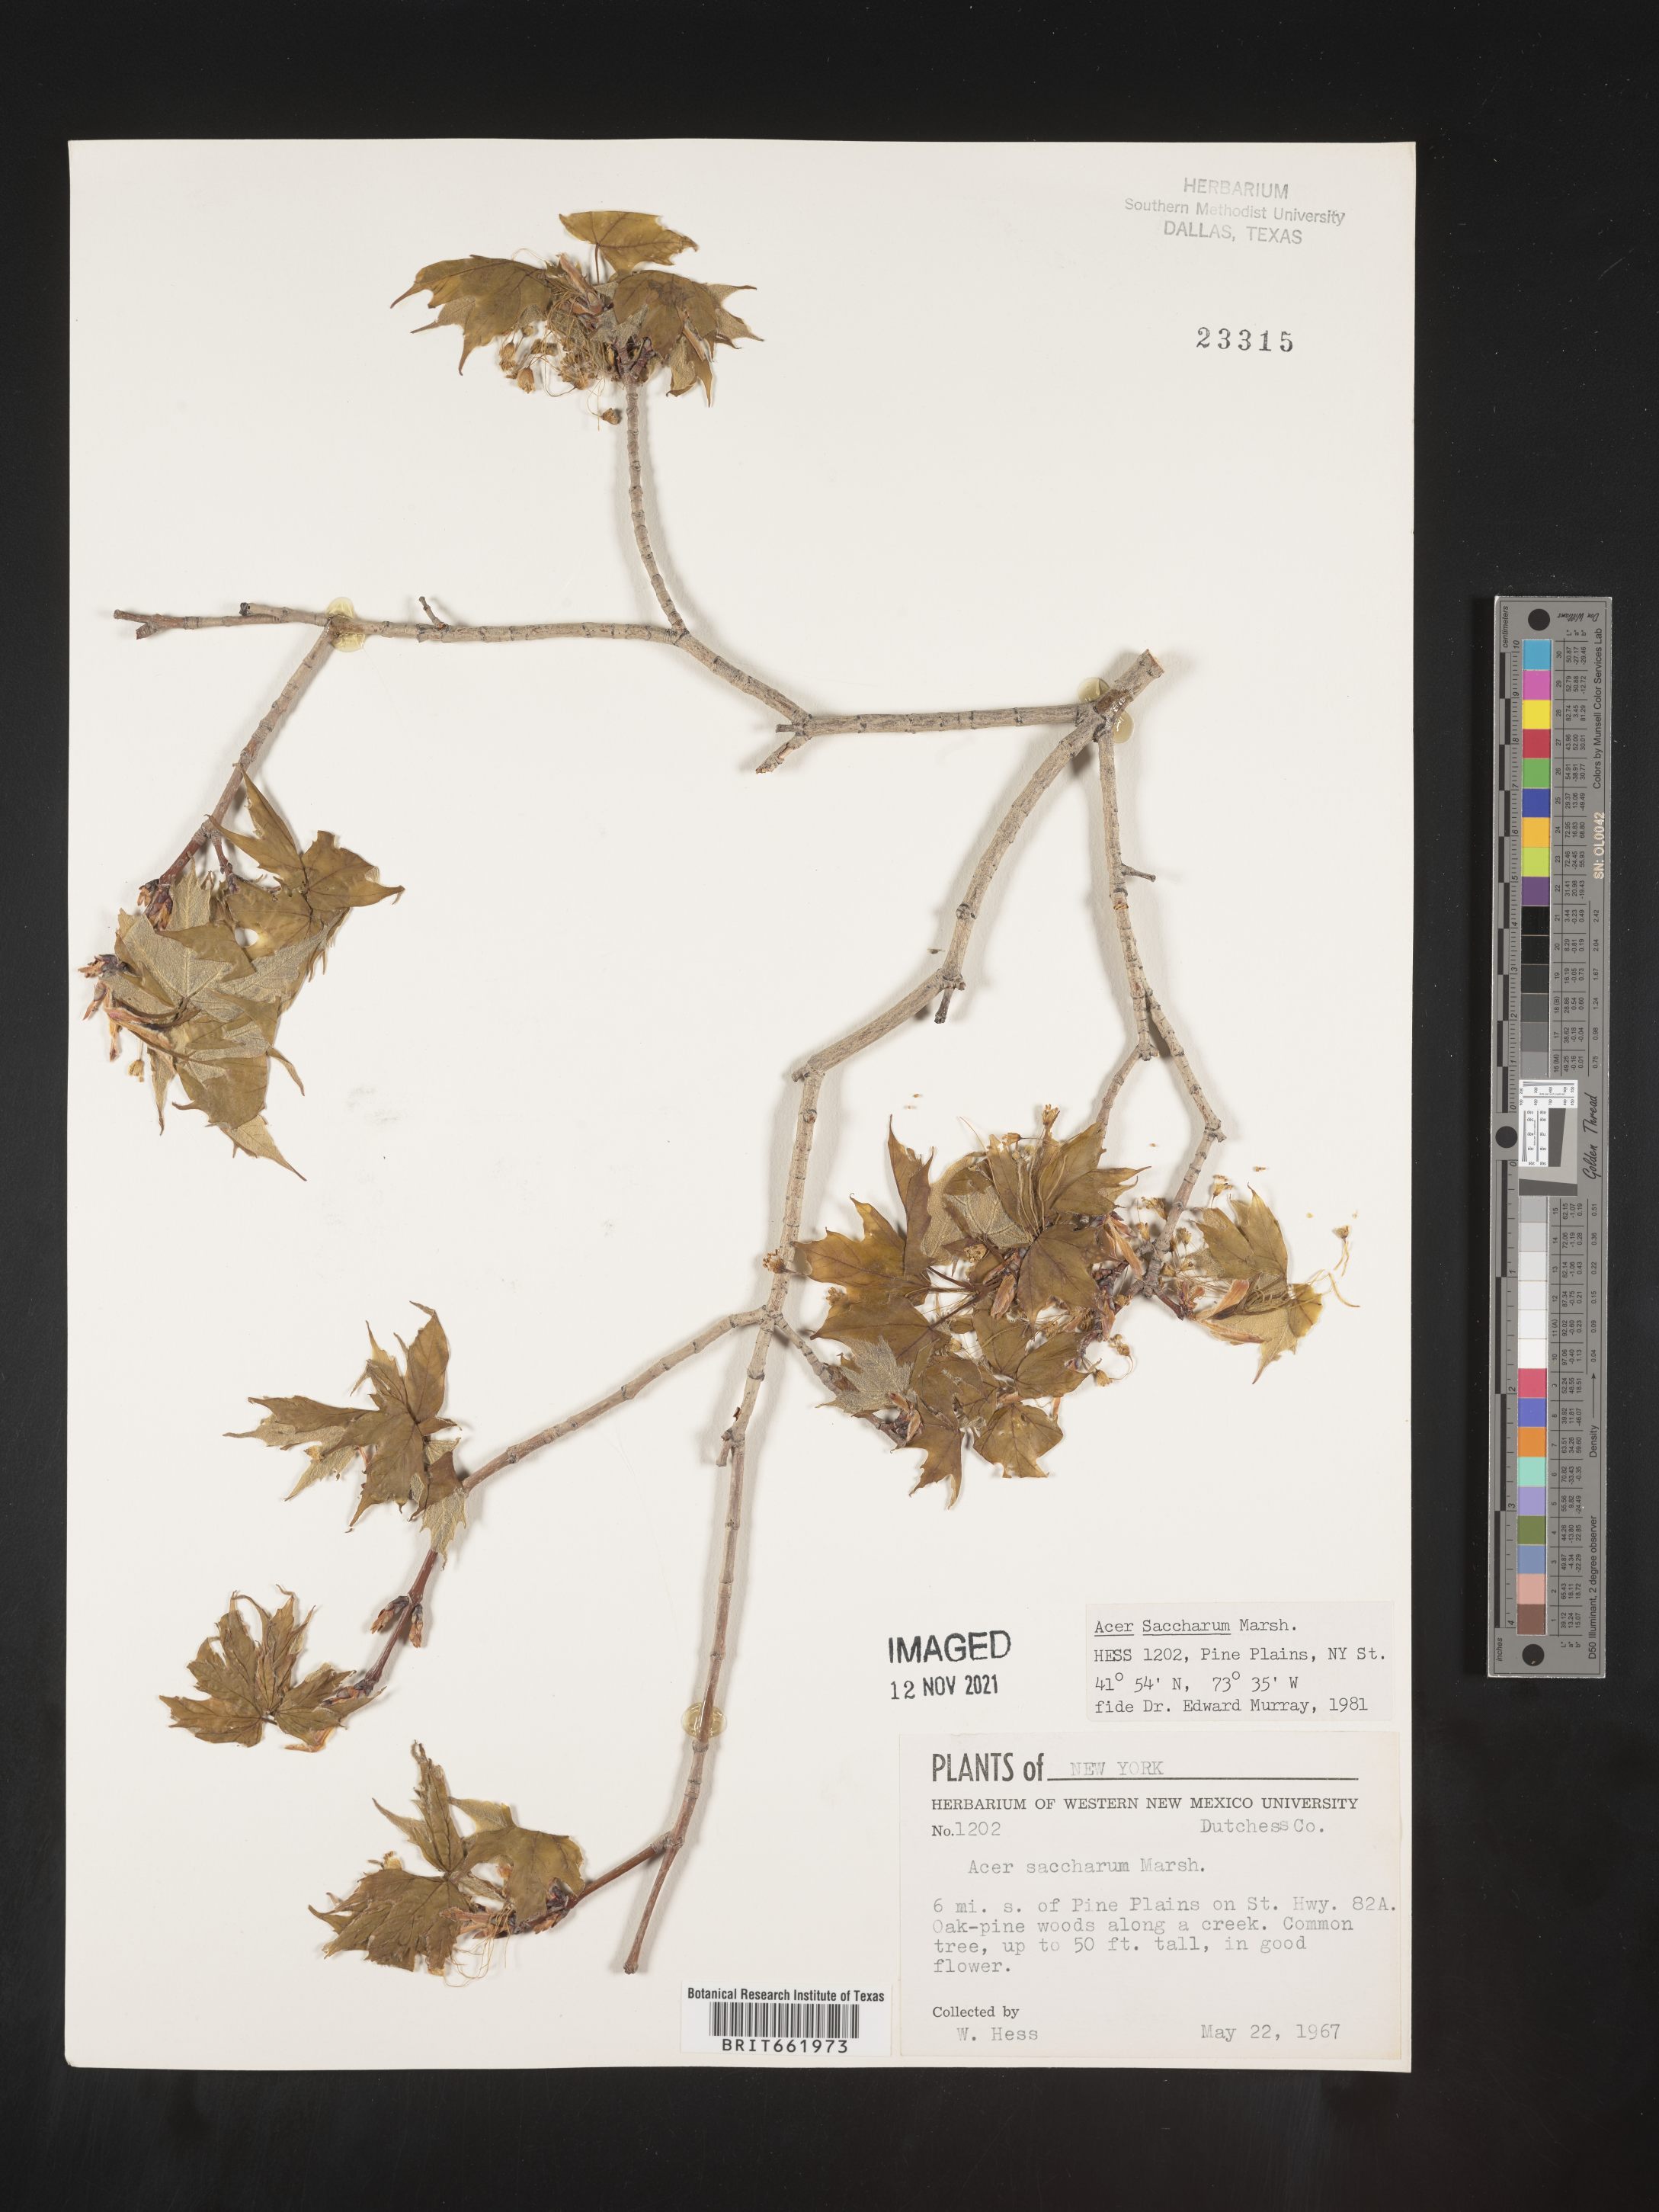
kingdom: Plantae
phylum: Tracheophyta
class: Magnoliopsida
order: Sapindales
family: Sapindaceae
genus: Acer
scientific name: Acer saccharum
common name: Sugar maple
